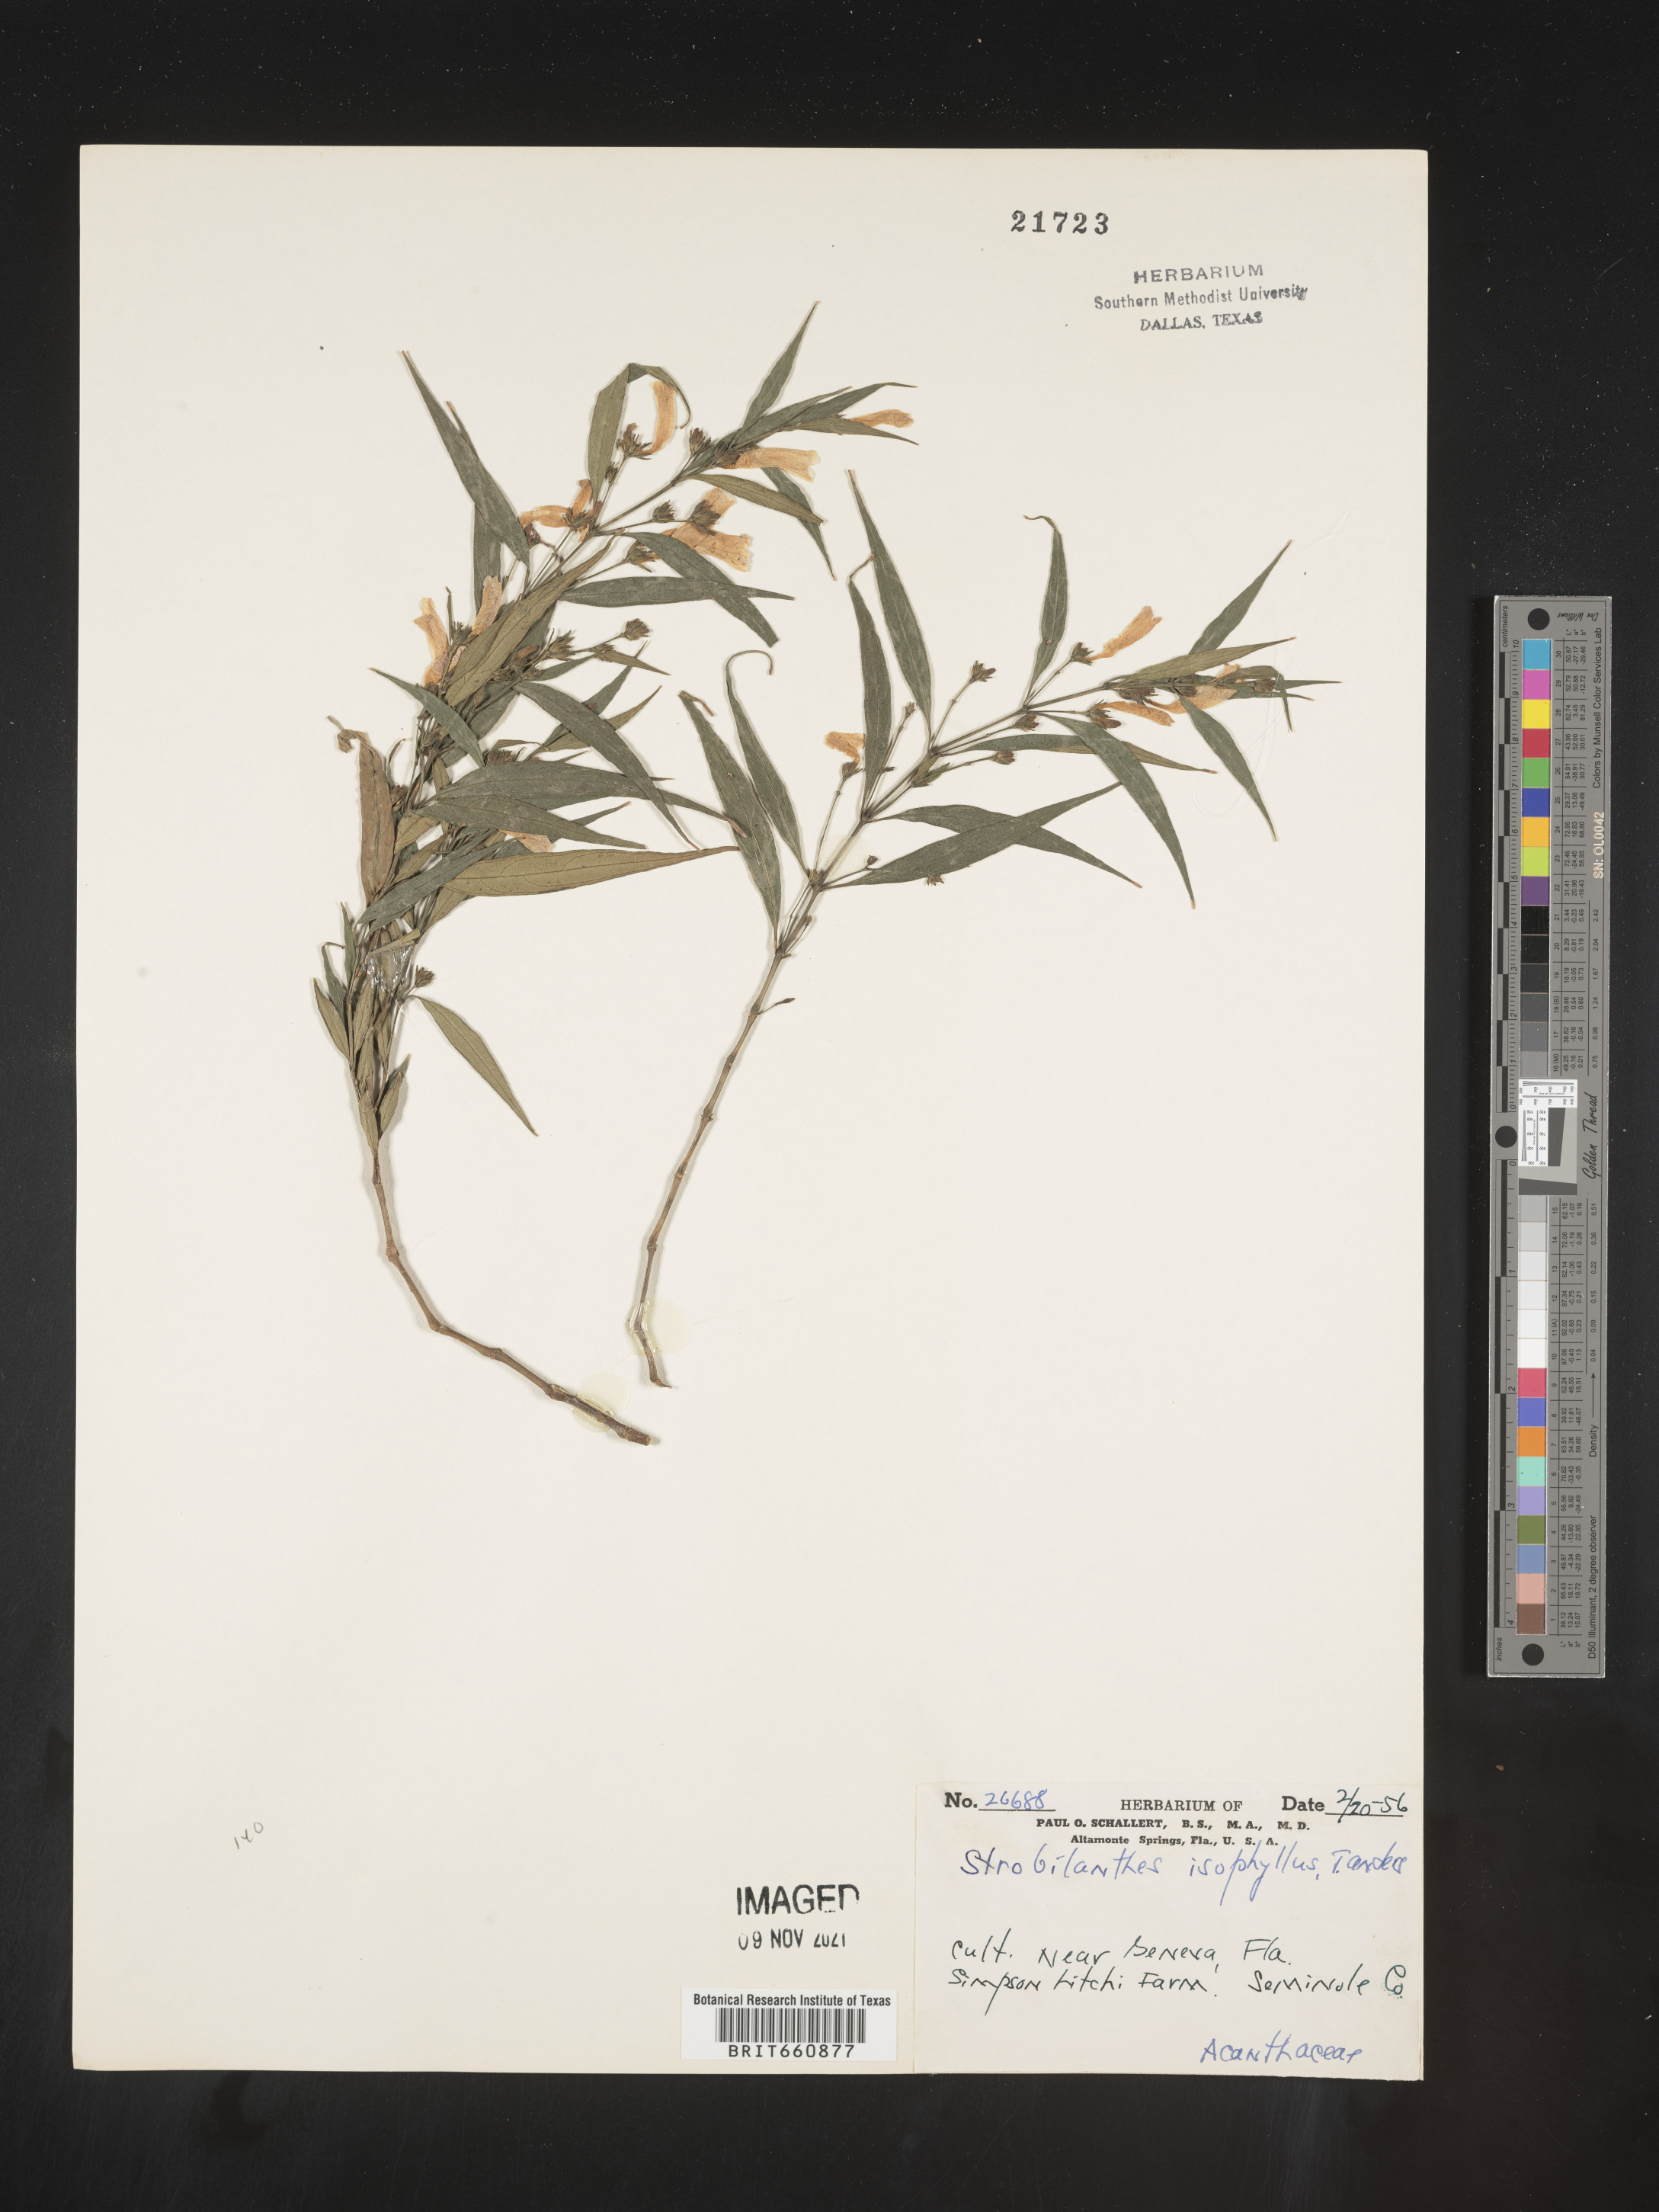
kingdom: Plantae
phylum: Tracheophyta
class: Magnoliopsida
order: Lamiales
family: Acanthaceae
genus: Strobilanthes
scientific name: Strobilanthes
